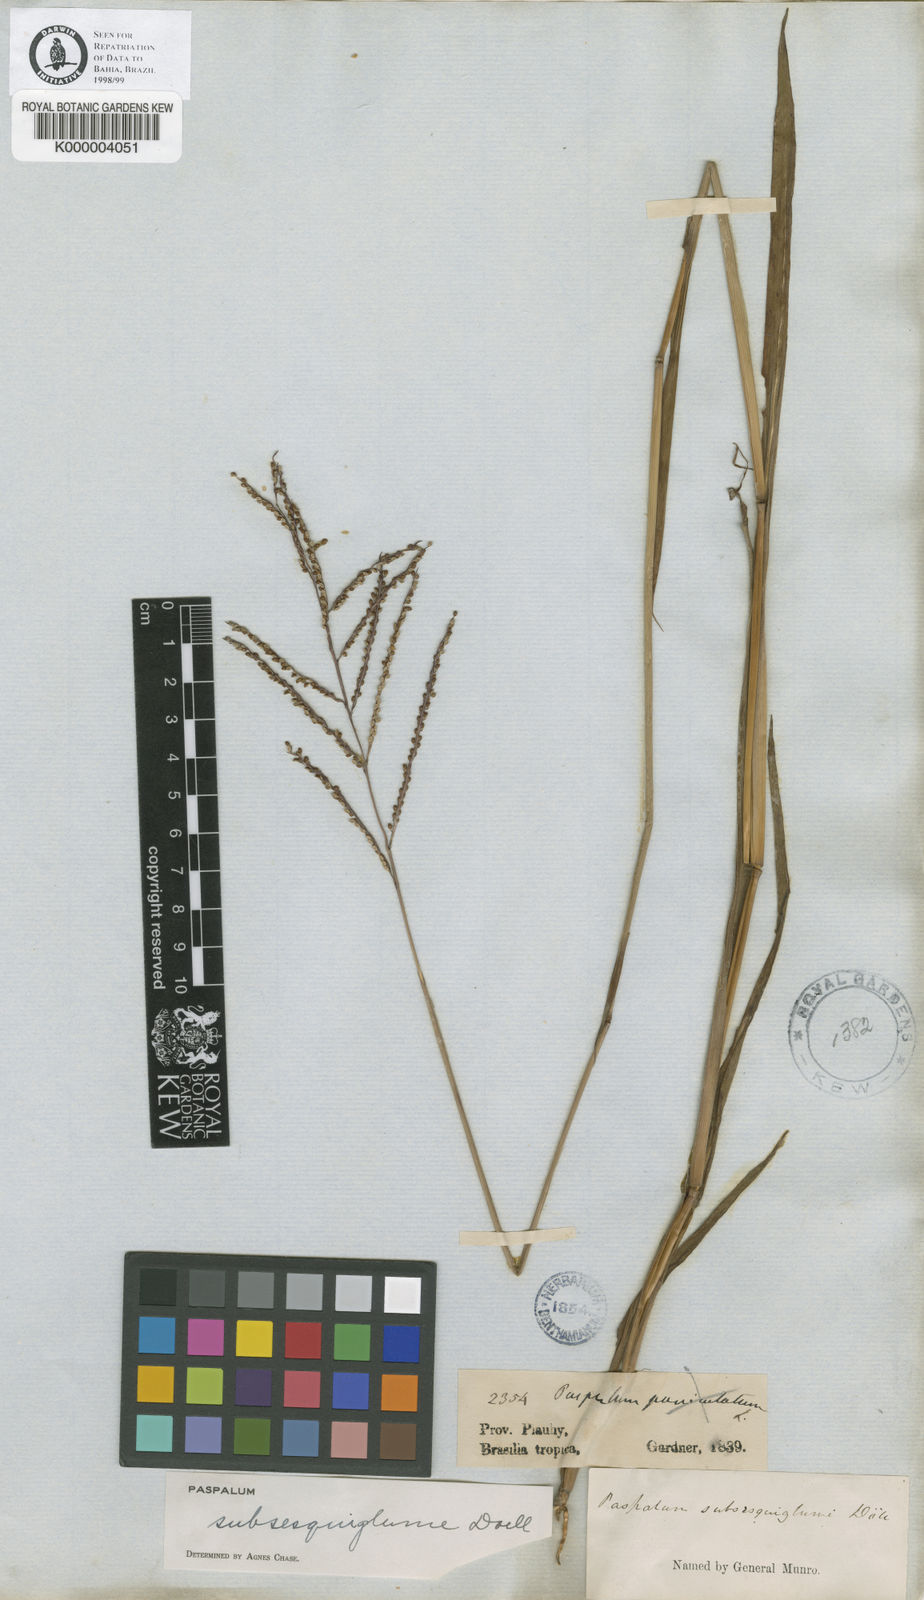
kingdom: Plantae
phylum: Tracheophyta
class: Liliopsida
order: Poales
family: Poaceae
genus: Paspalum
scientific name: Paspalum
